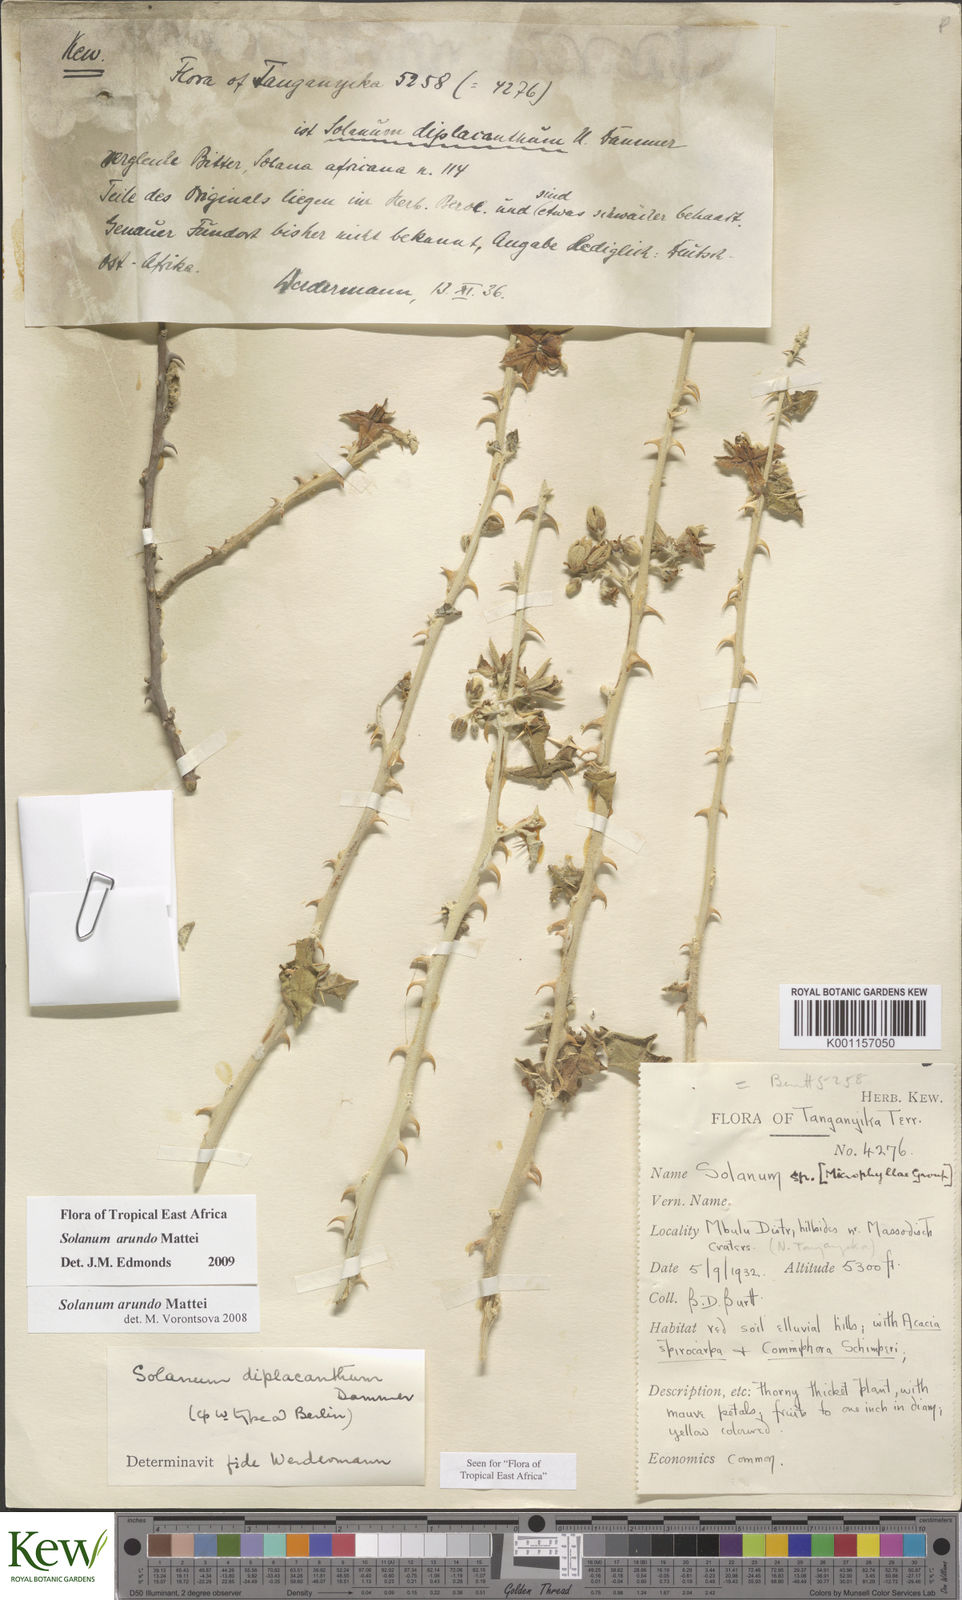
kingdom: Plantae
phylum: Tracheophyta
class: Magnoliopsida
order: Solanales
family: Solanaceae
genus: Solanum
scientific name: Solanum arundo
